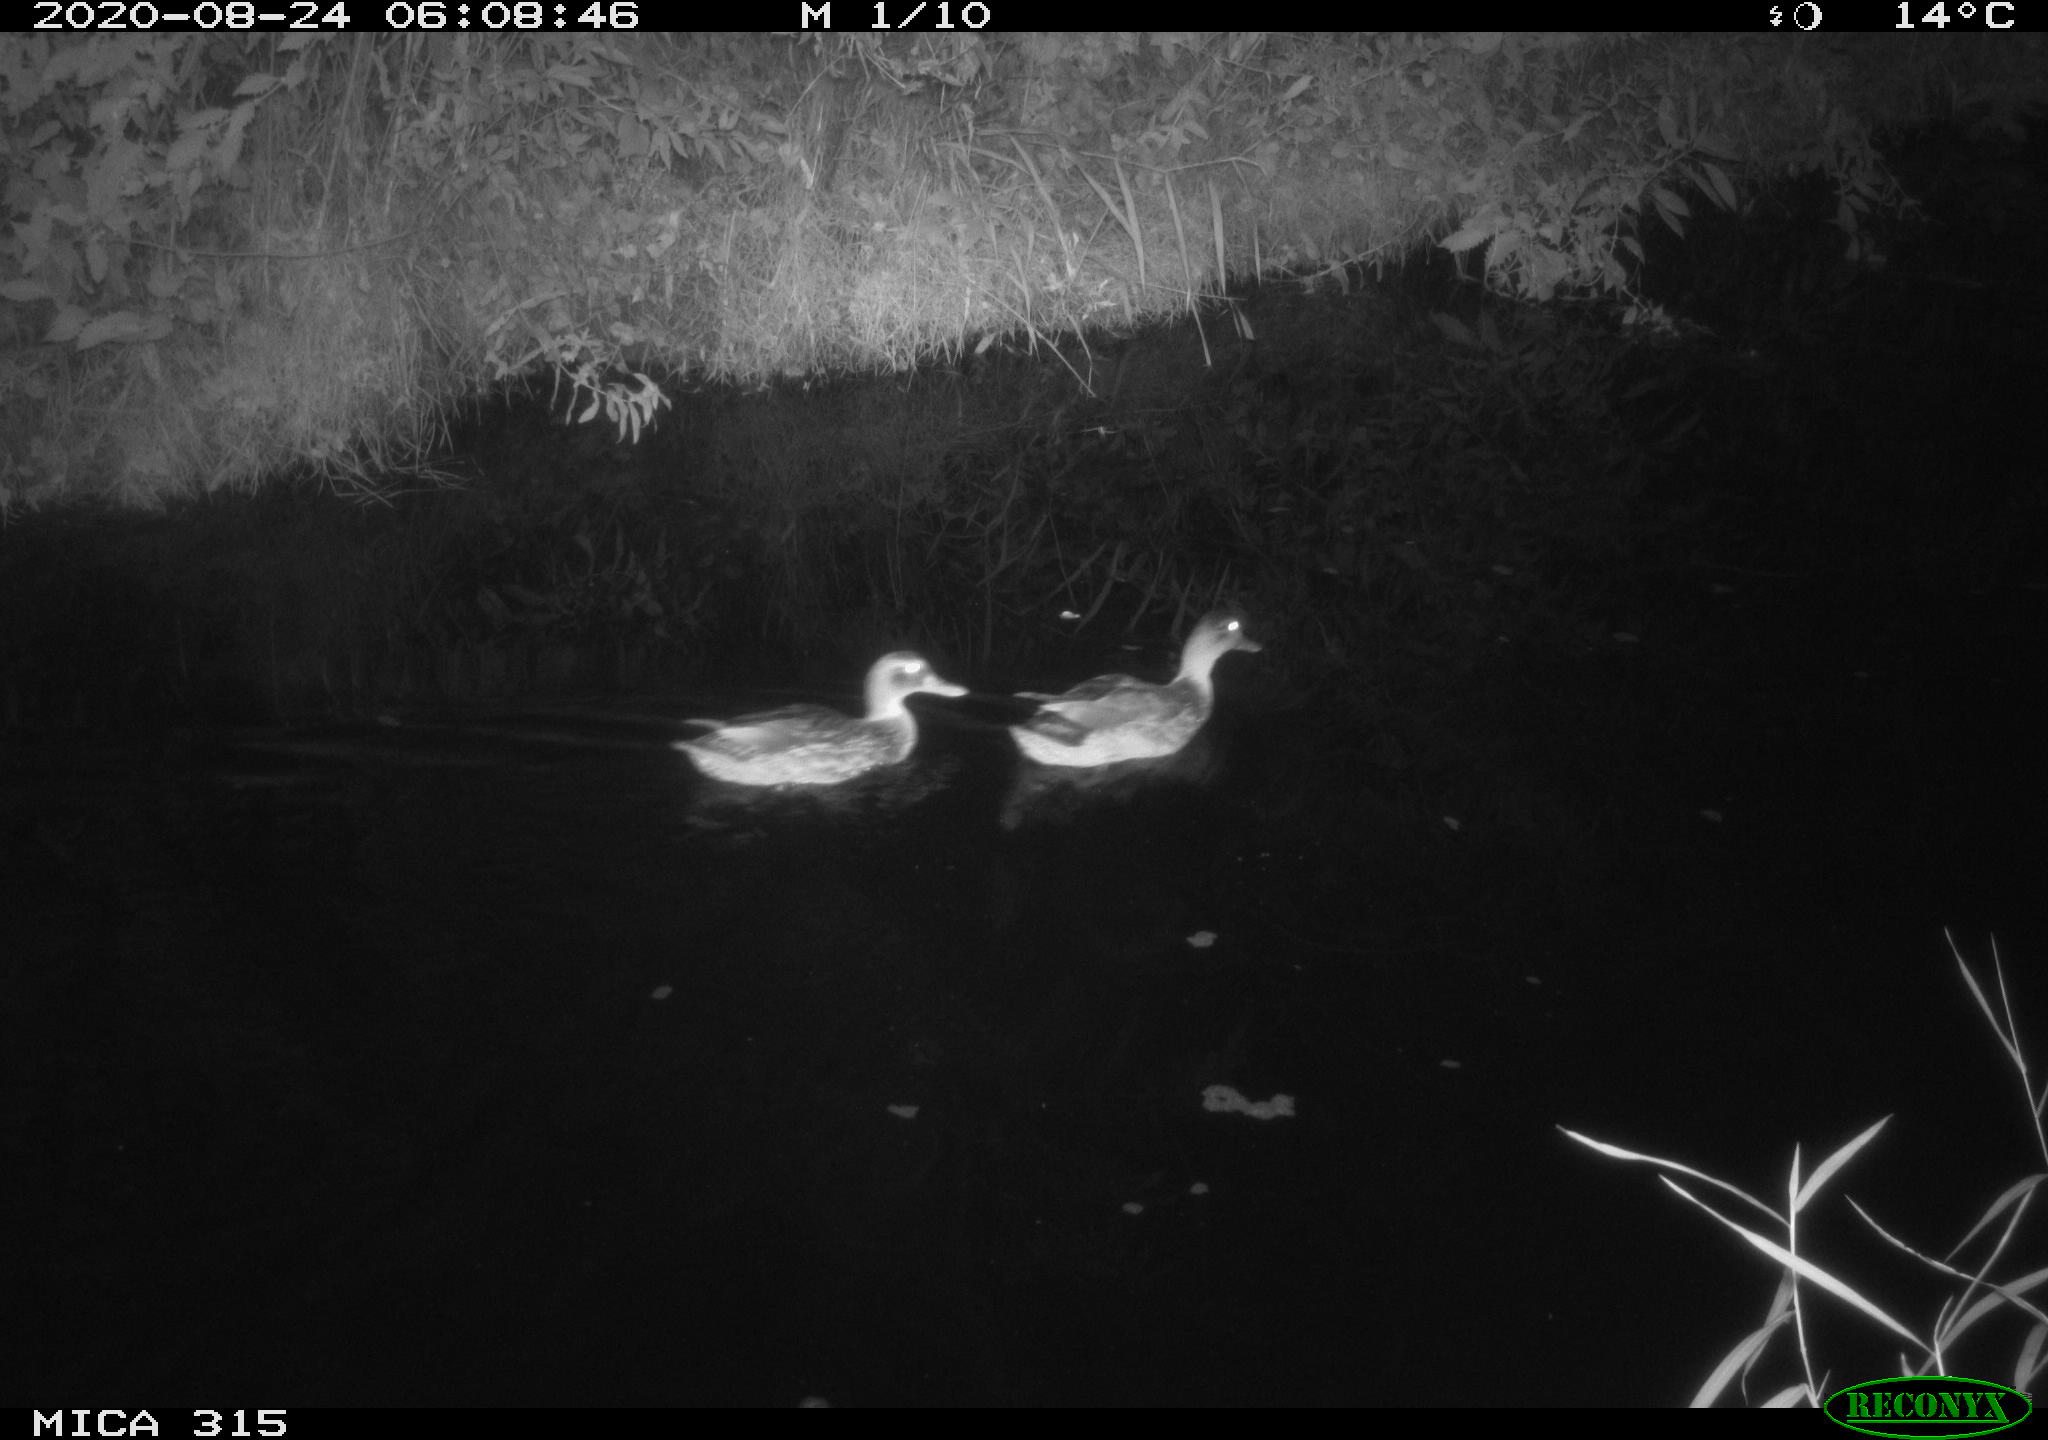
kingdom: Animalia
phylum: Chordata
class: Aves
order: Anseriformes
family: Anatidae
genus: Anas
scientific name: Anas platyrhynchos
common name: Mallard
